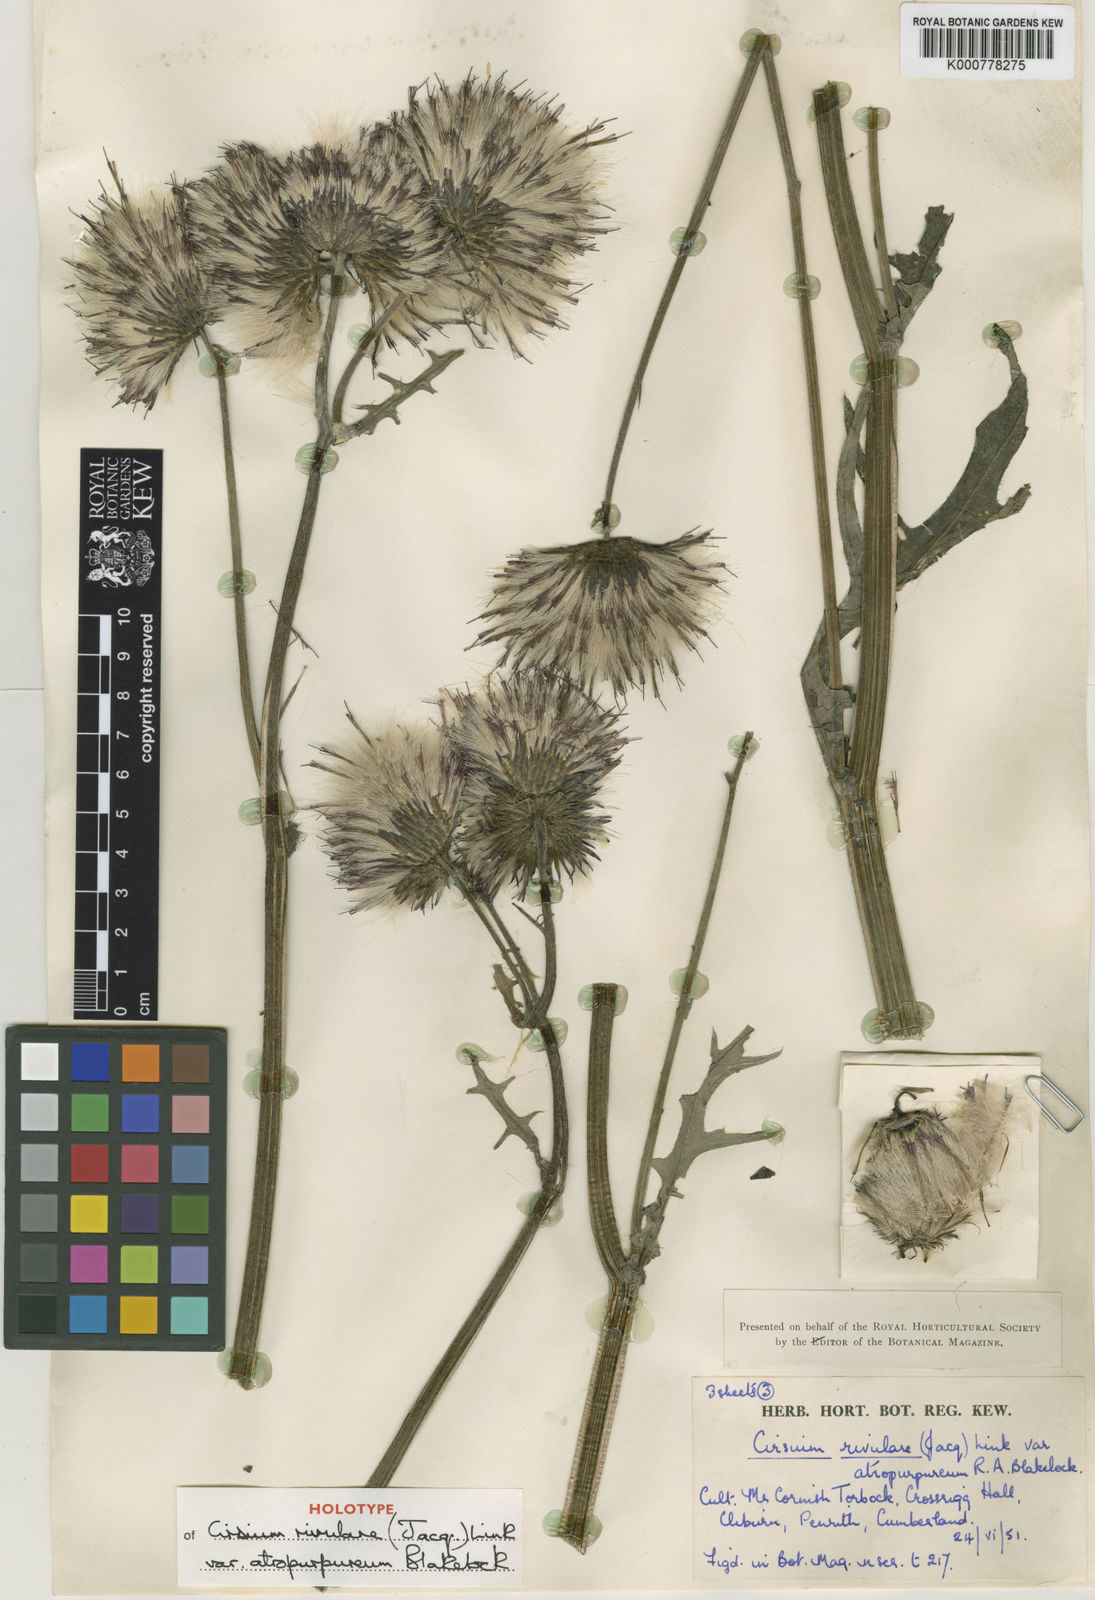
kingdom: Plantae
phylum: Tracheophyta
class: Magnoliopsida
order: Asterales
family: Asteraceae
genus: Cirsium
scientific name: Cirsium rivulare
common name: Brook thistle
